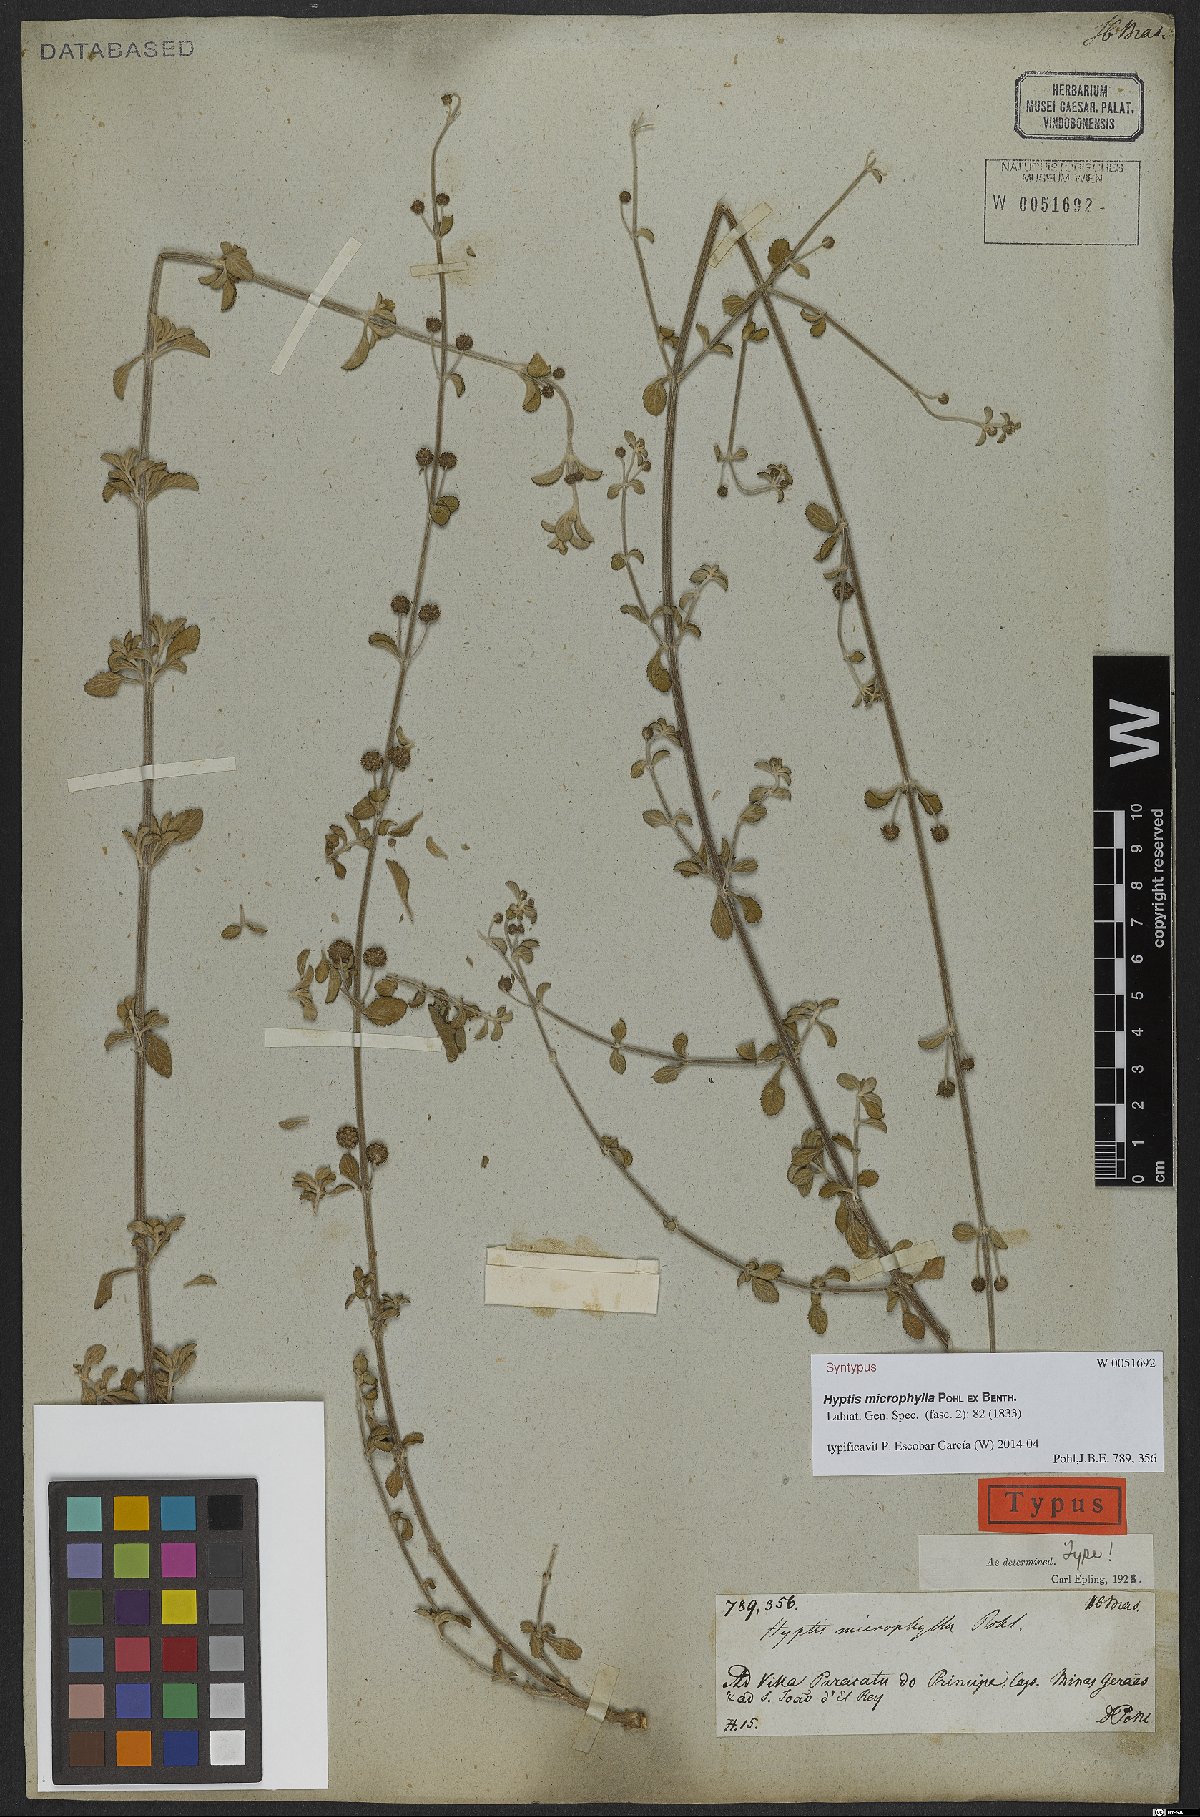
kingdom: Plantae
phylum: Tracheophyta
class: Magnoliopsida
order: Lamiales
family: Lamiaceae
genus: Hyptis
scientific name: Hyptis microphylla
